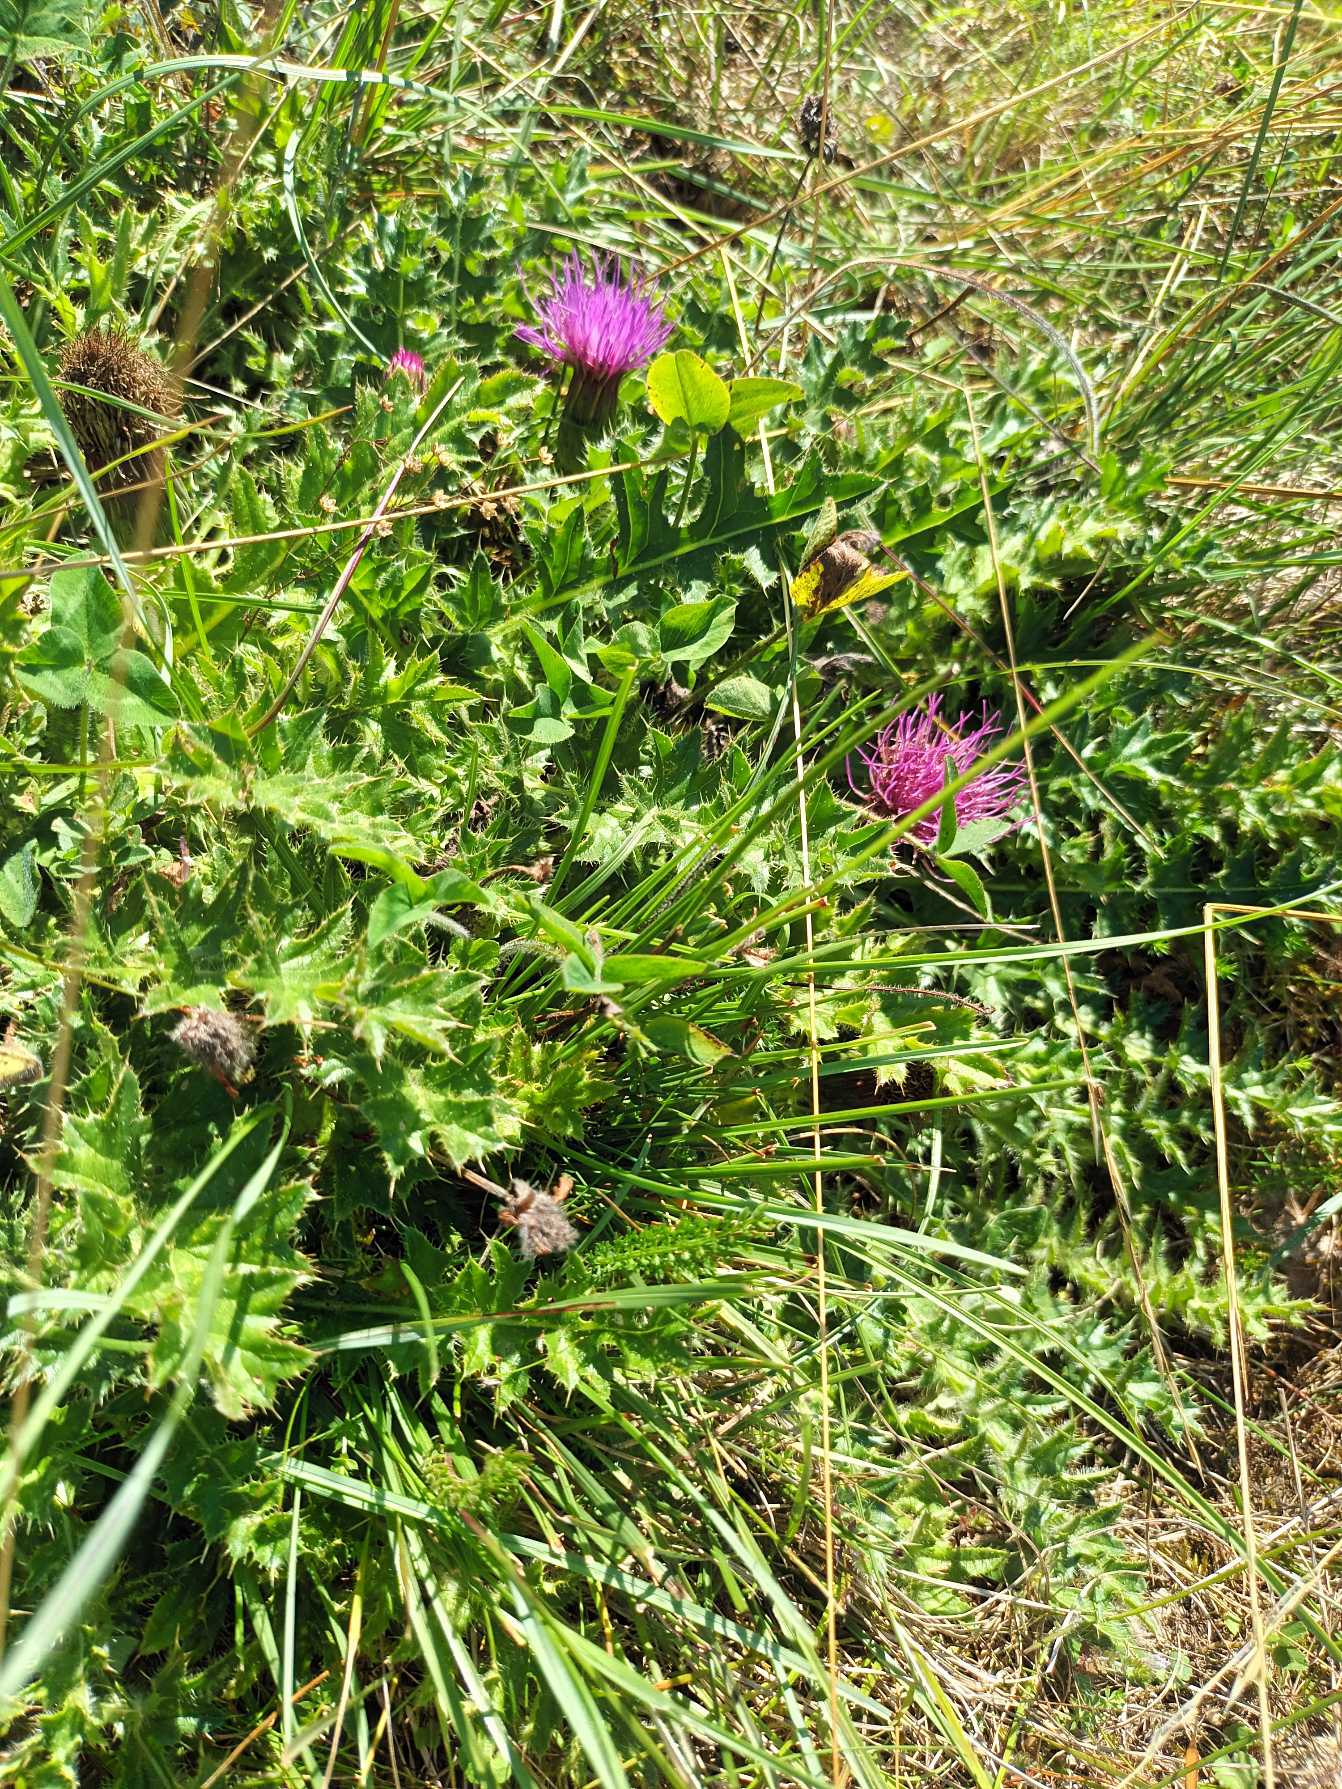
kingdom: Plantae
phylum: Tracheophyta
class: Magnoliopsida
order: Asterales
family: Asteraceae
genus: Cirsium
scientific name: Cirsium acaule
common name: Lav tidsel
